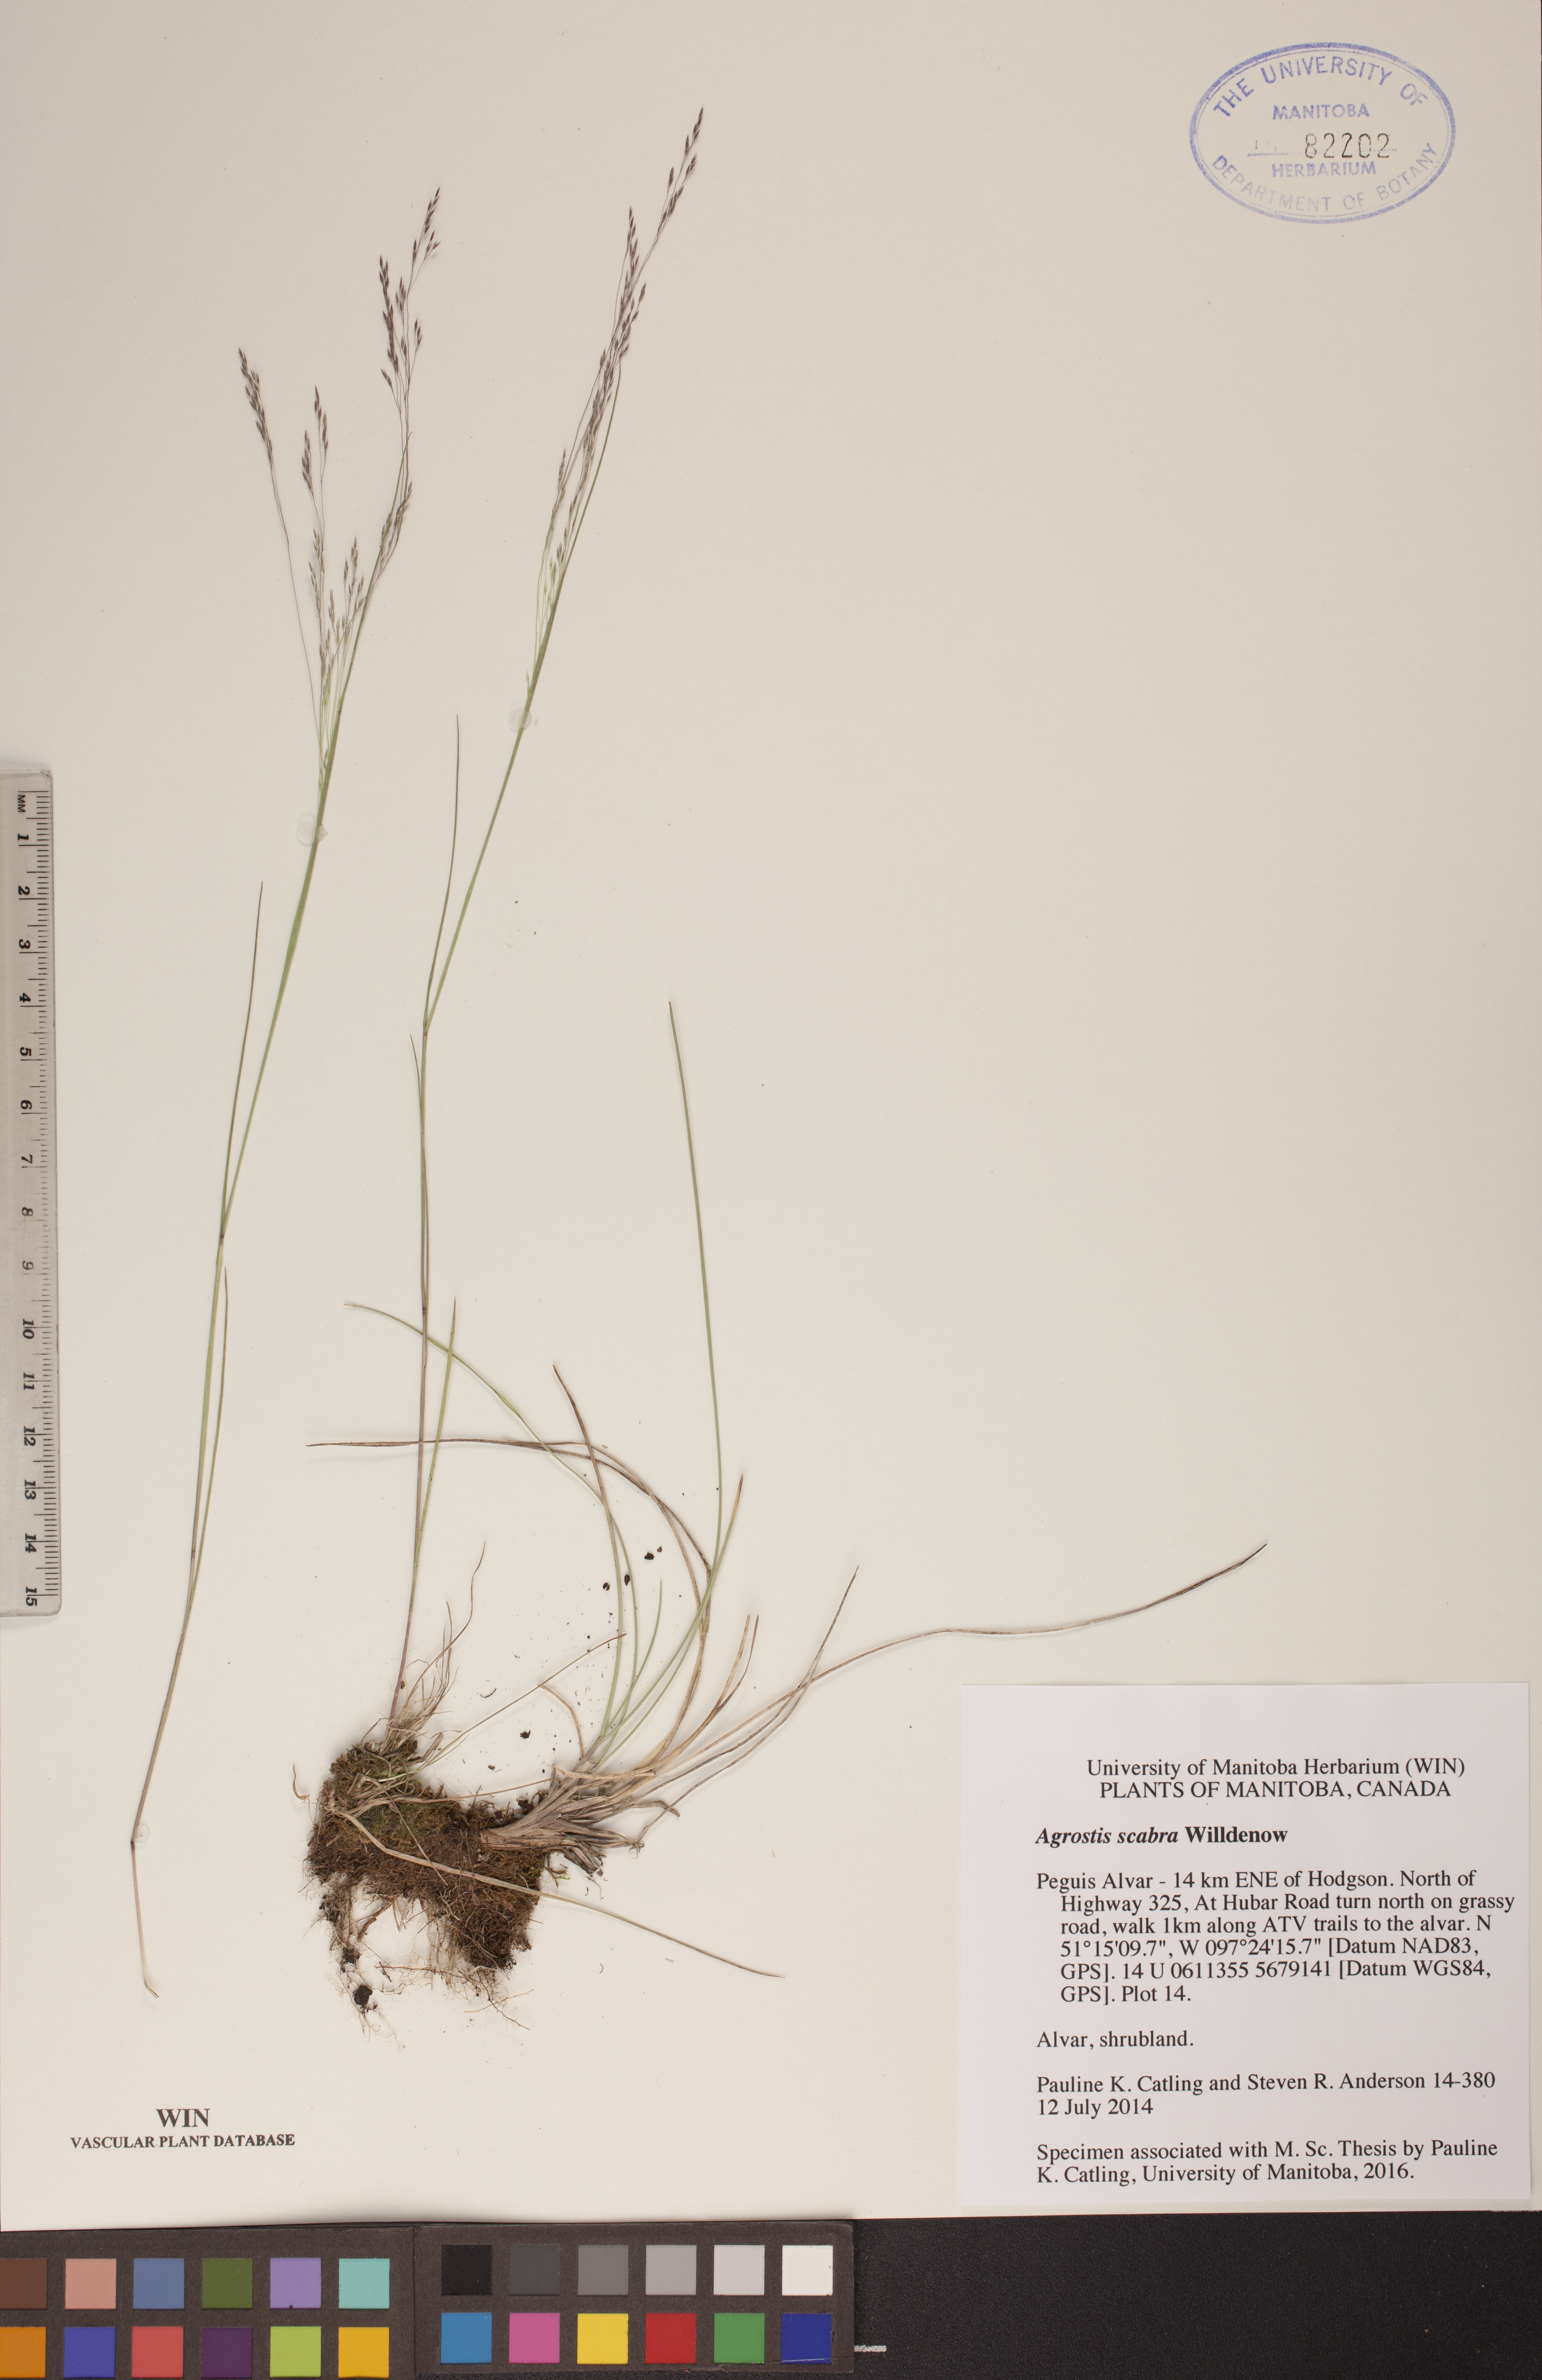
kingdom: Plantae
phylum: Tracheophyta
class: Liliopsida
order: Poales
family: Poaceae
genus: Agrostis
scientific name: Agrostis scabra
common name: Rough bent
